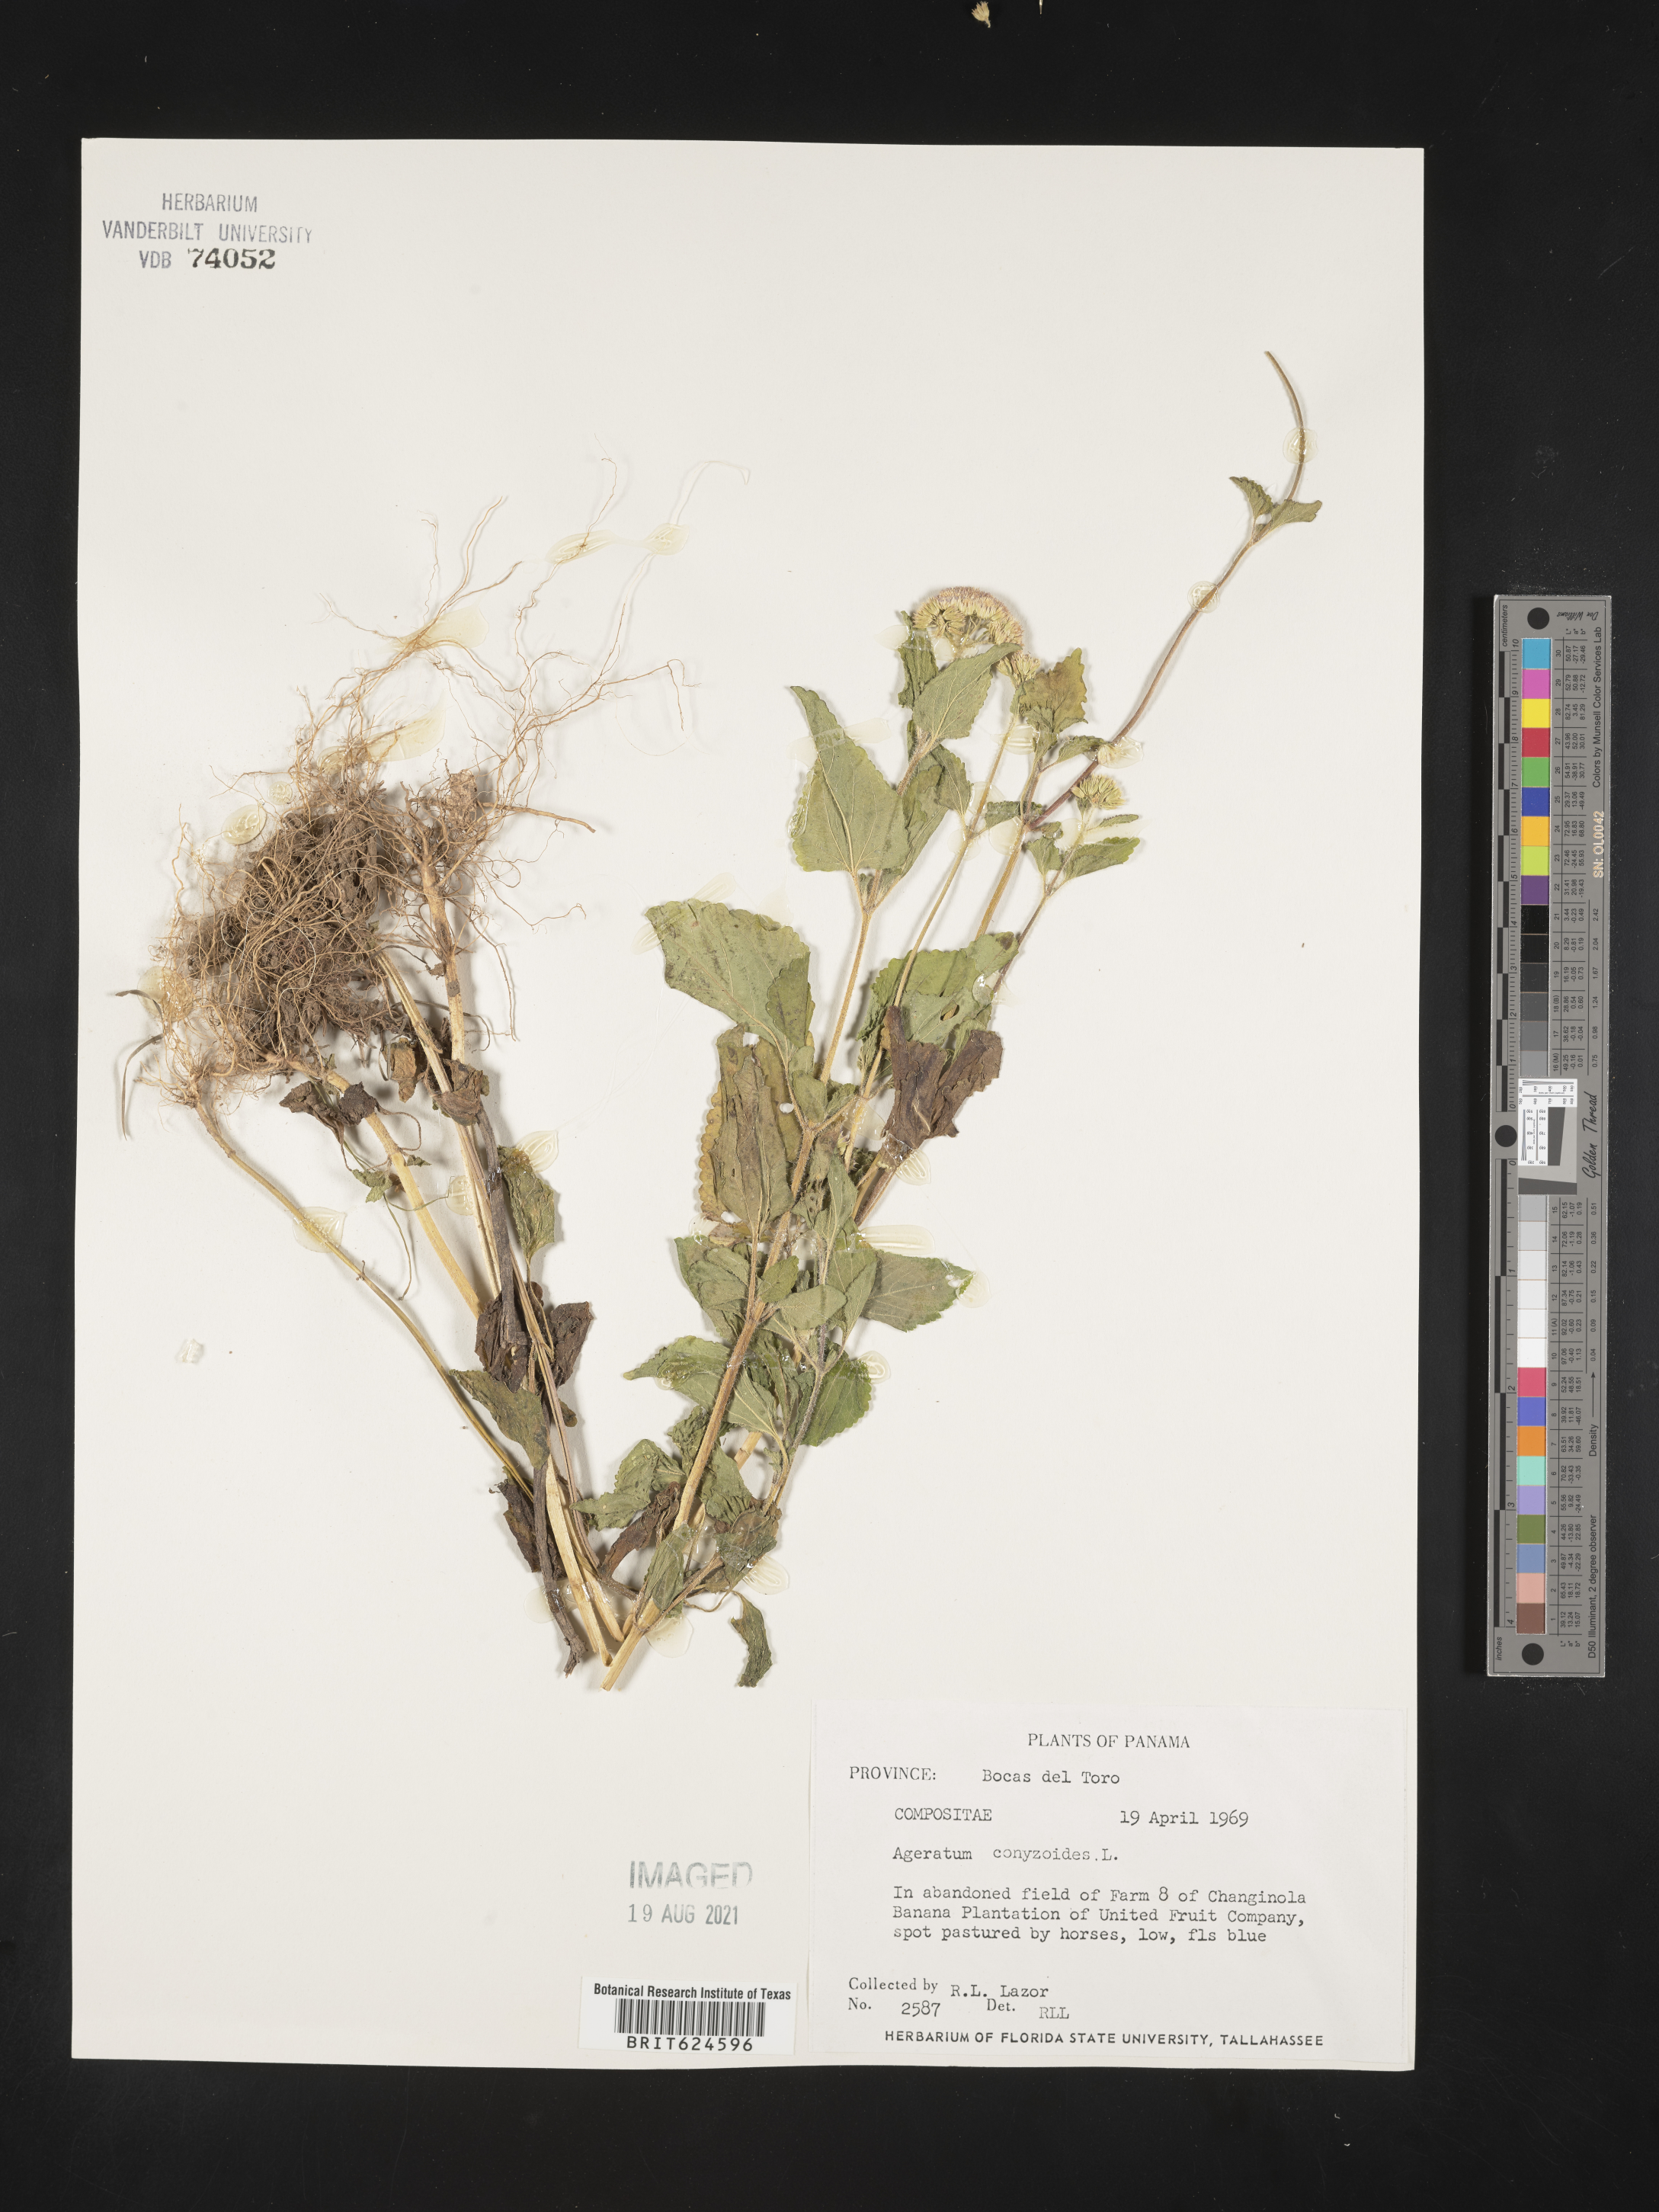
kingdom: Plantae
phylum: Tracheophyta
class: Magnoliopsida
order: Asterales
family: Asteraceae
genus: Chromolaena
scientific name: Chromolaena corymbosa
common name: Caribbean thoroughwort
